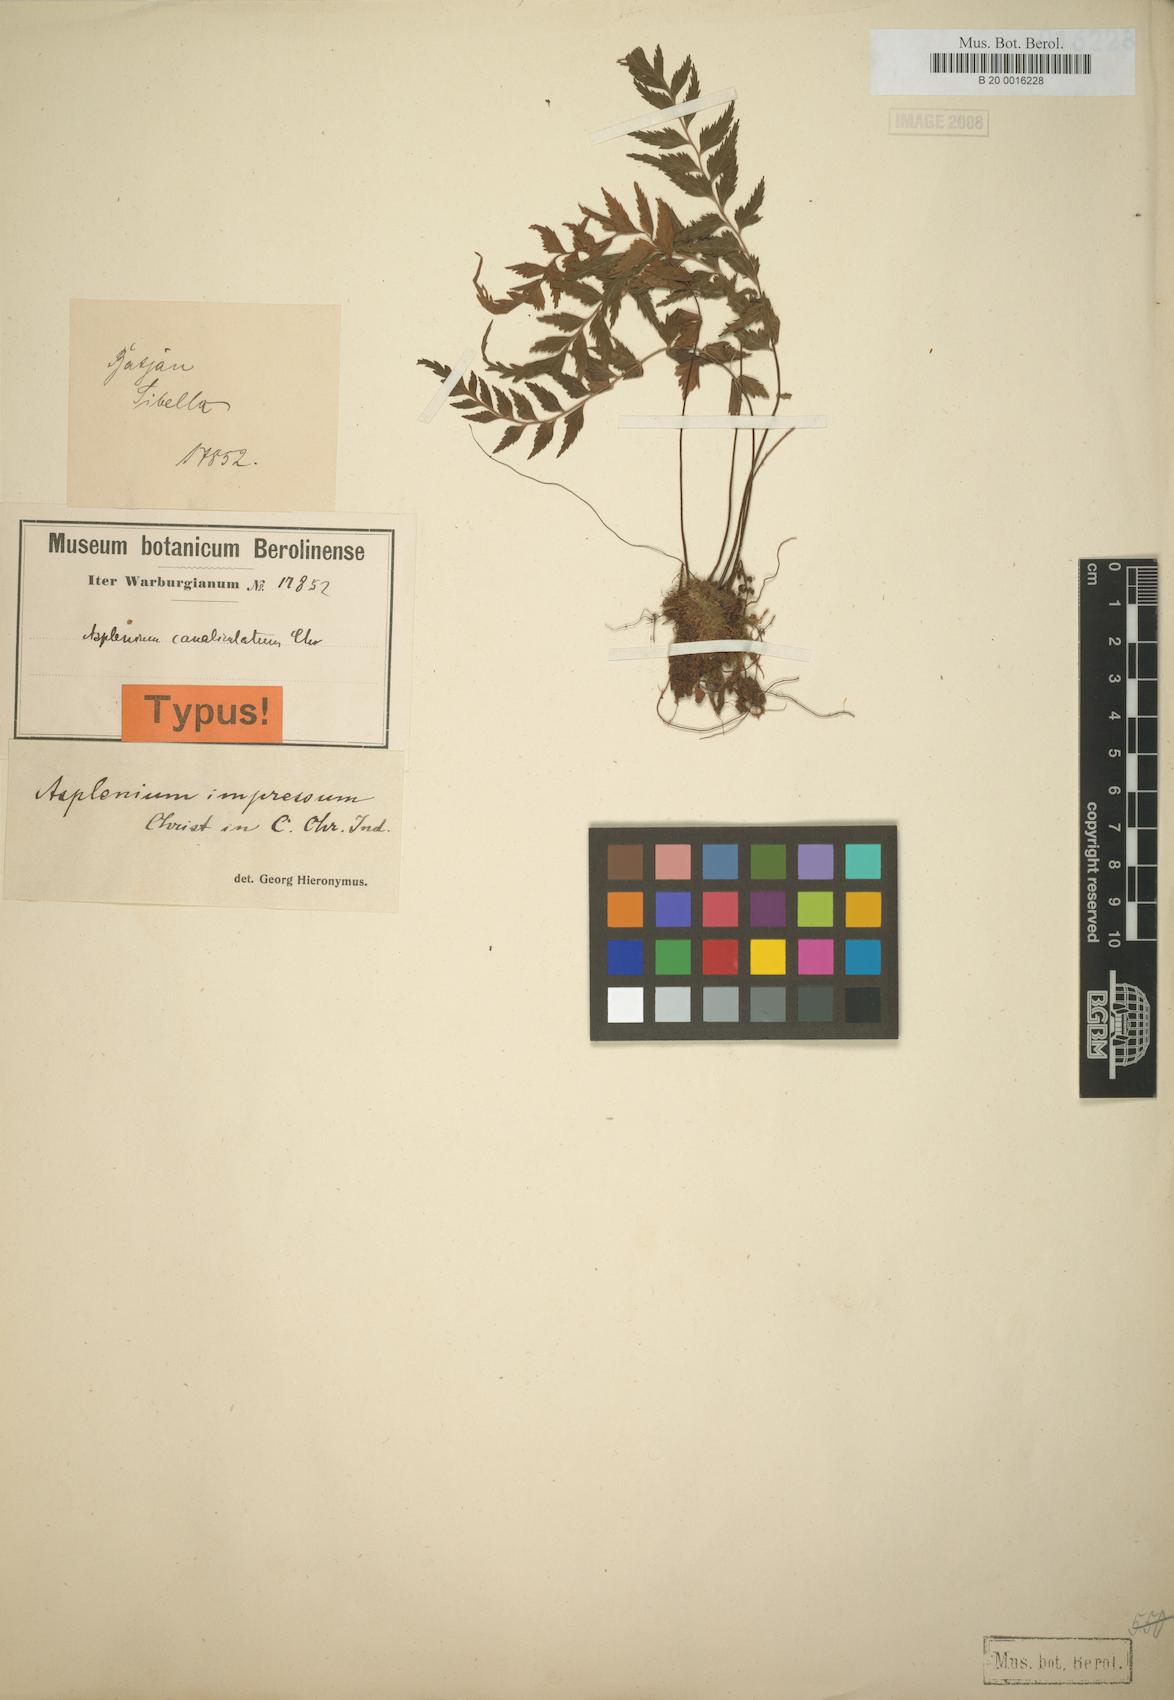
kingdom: Plantae
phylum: Tracheophyta
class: Polypodiopsida
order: Polypodiales
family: Aspleniaceae
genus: Asplenium
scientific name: Asplenium simile
